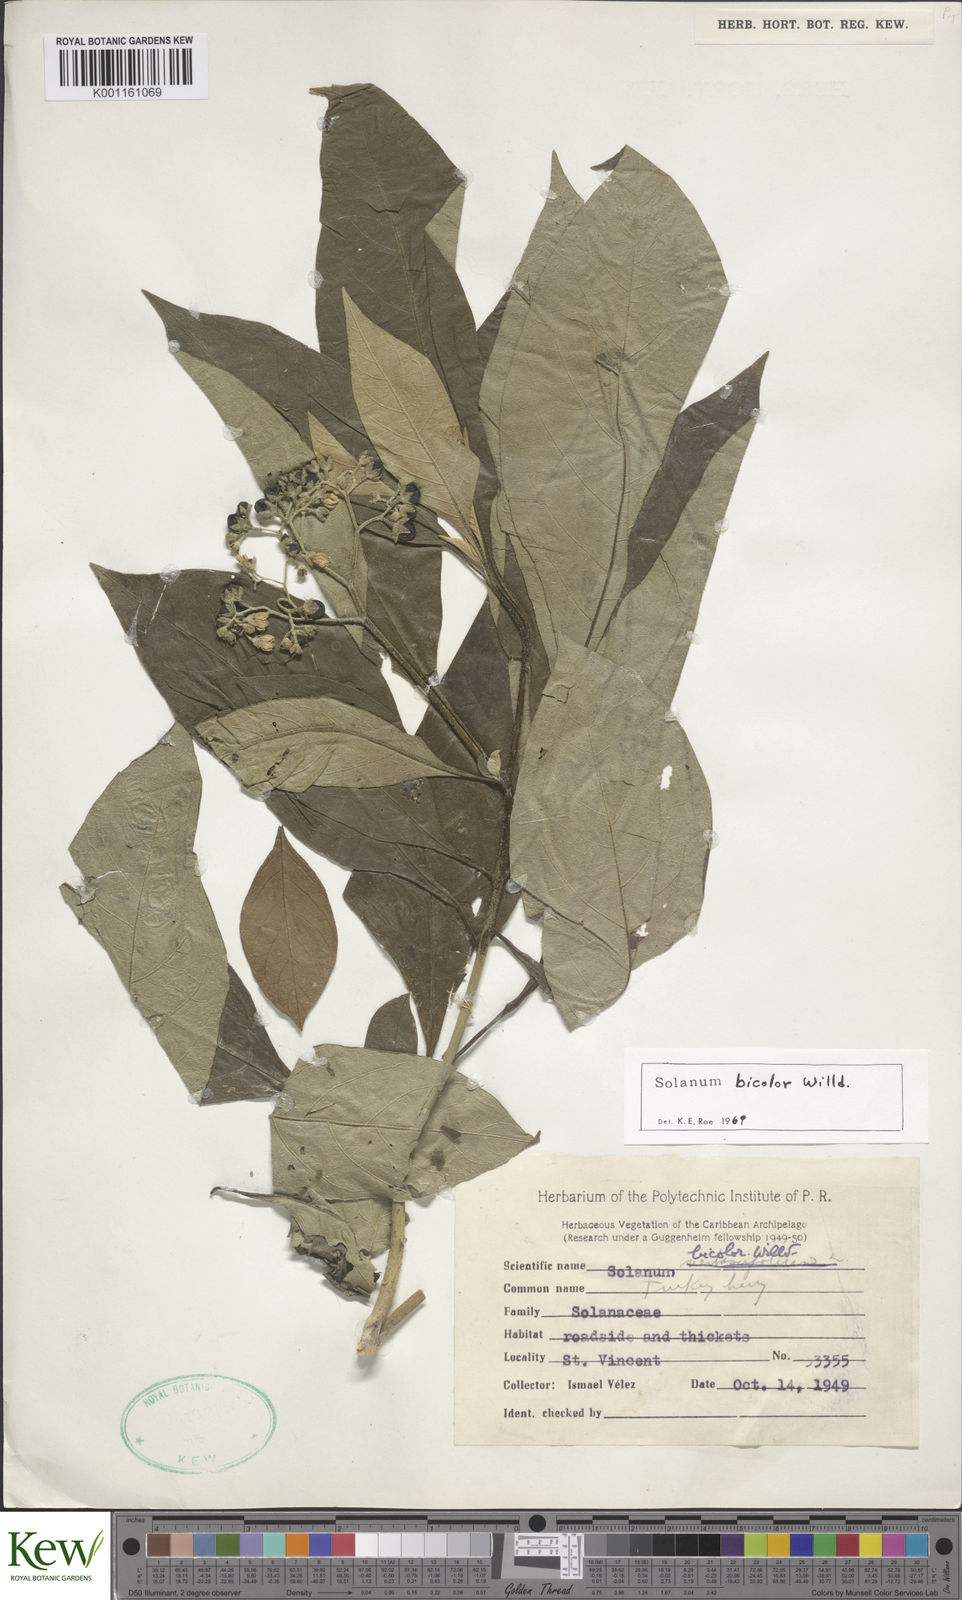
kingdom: Plantae
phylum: Tracheophyta
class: Magnoliopsida
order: Solanales
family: Solanaceae
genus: Solanum
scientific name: Solanum bicolor
